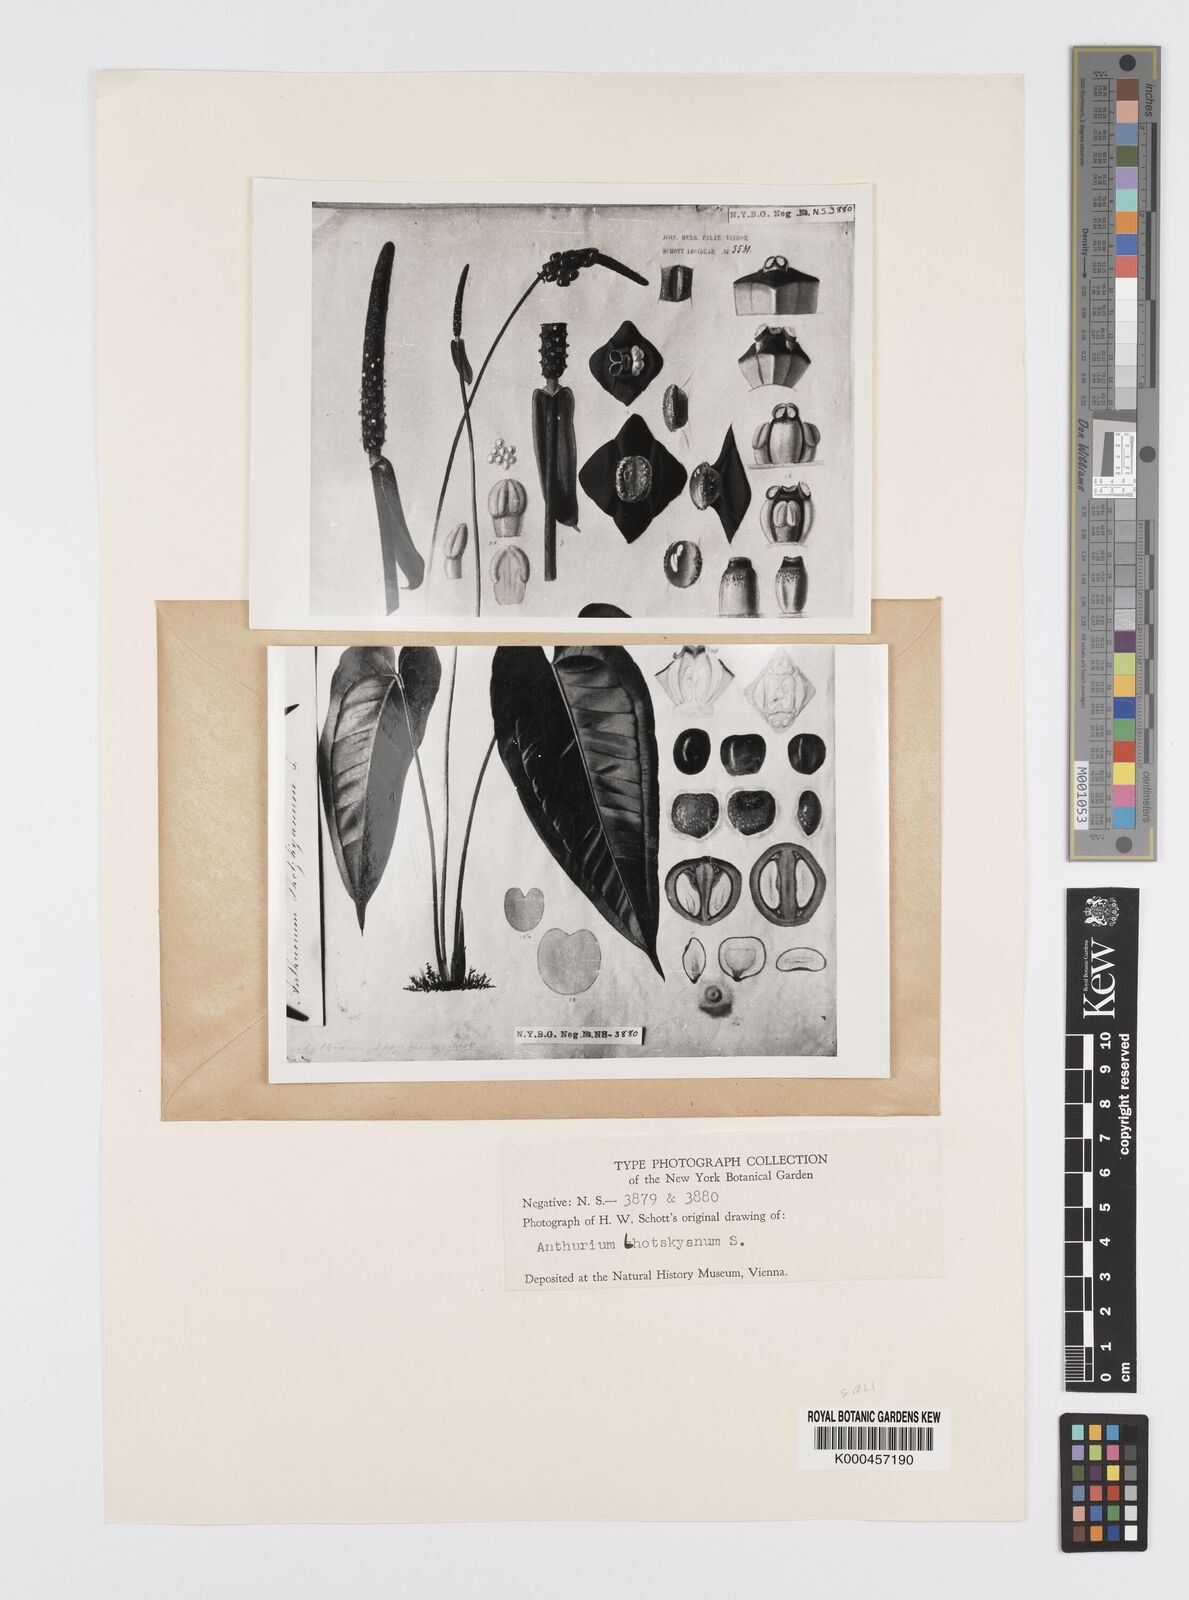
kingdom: Plantae
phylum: Tracheophyta
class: Liliopsida
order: Alismatales
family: Araceae
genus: Anthurium
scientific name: Anthurium augustinum
